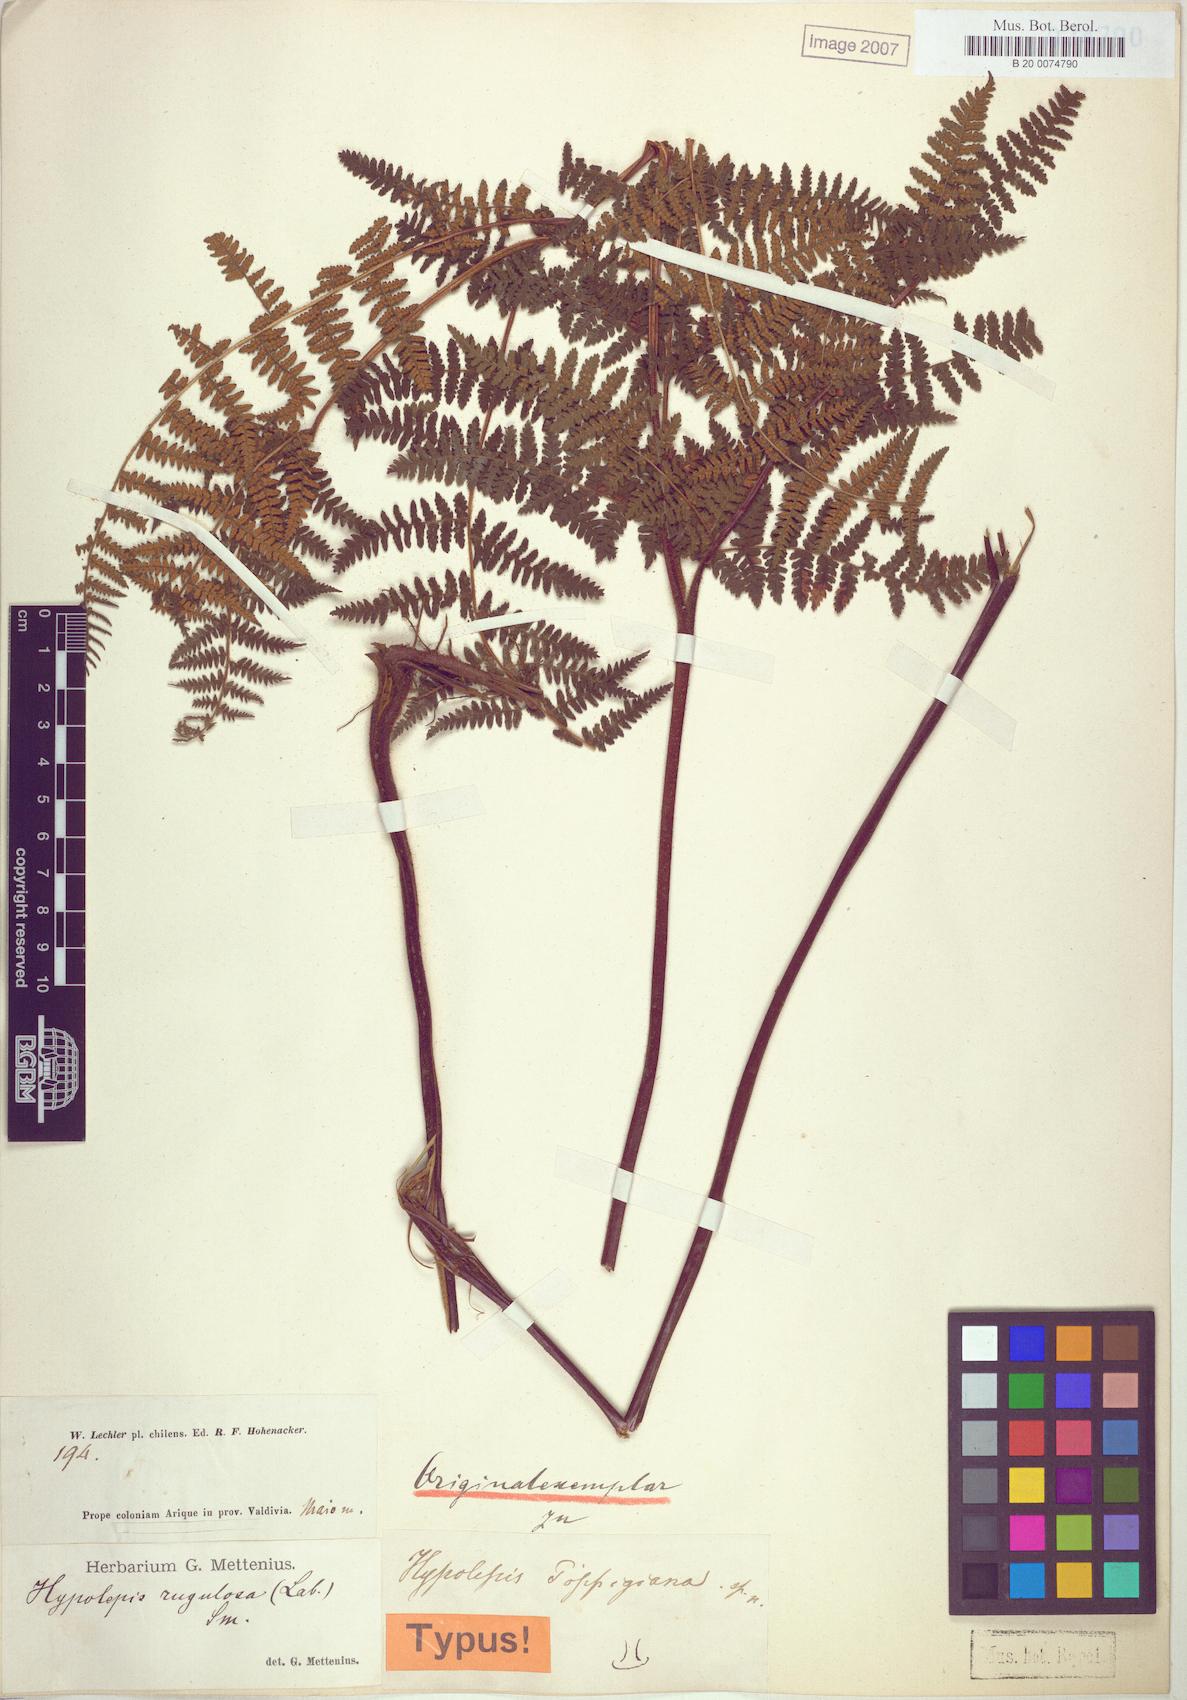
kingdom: Plantae
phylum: Tracheophyta
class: Polypodiopsida
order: Polypodiales
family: Dennstaedtiaceae
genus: Hypolepis
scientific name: Hypolepis rugosula
